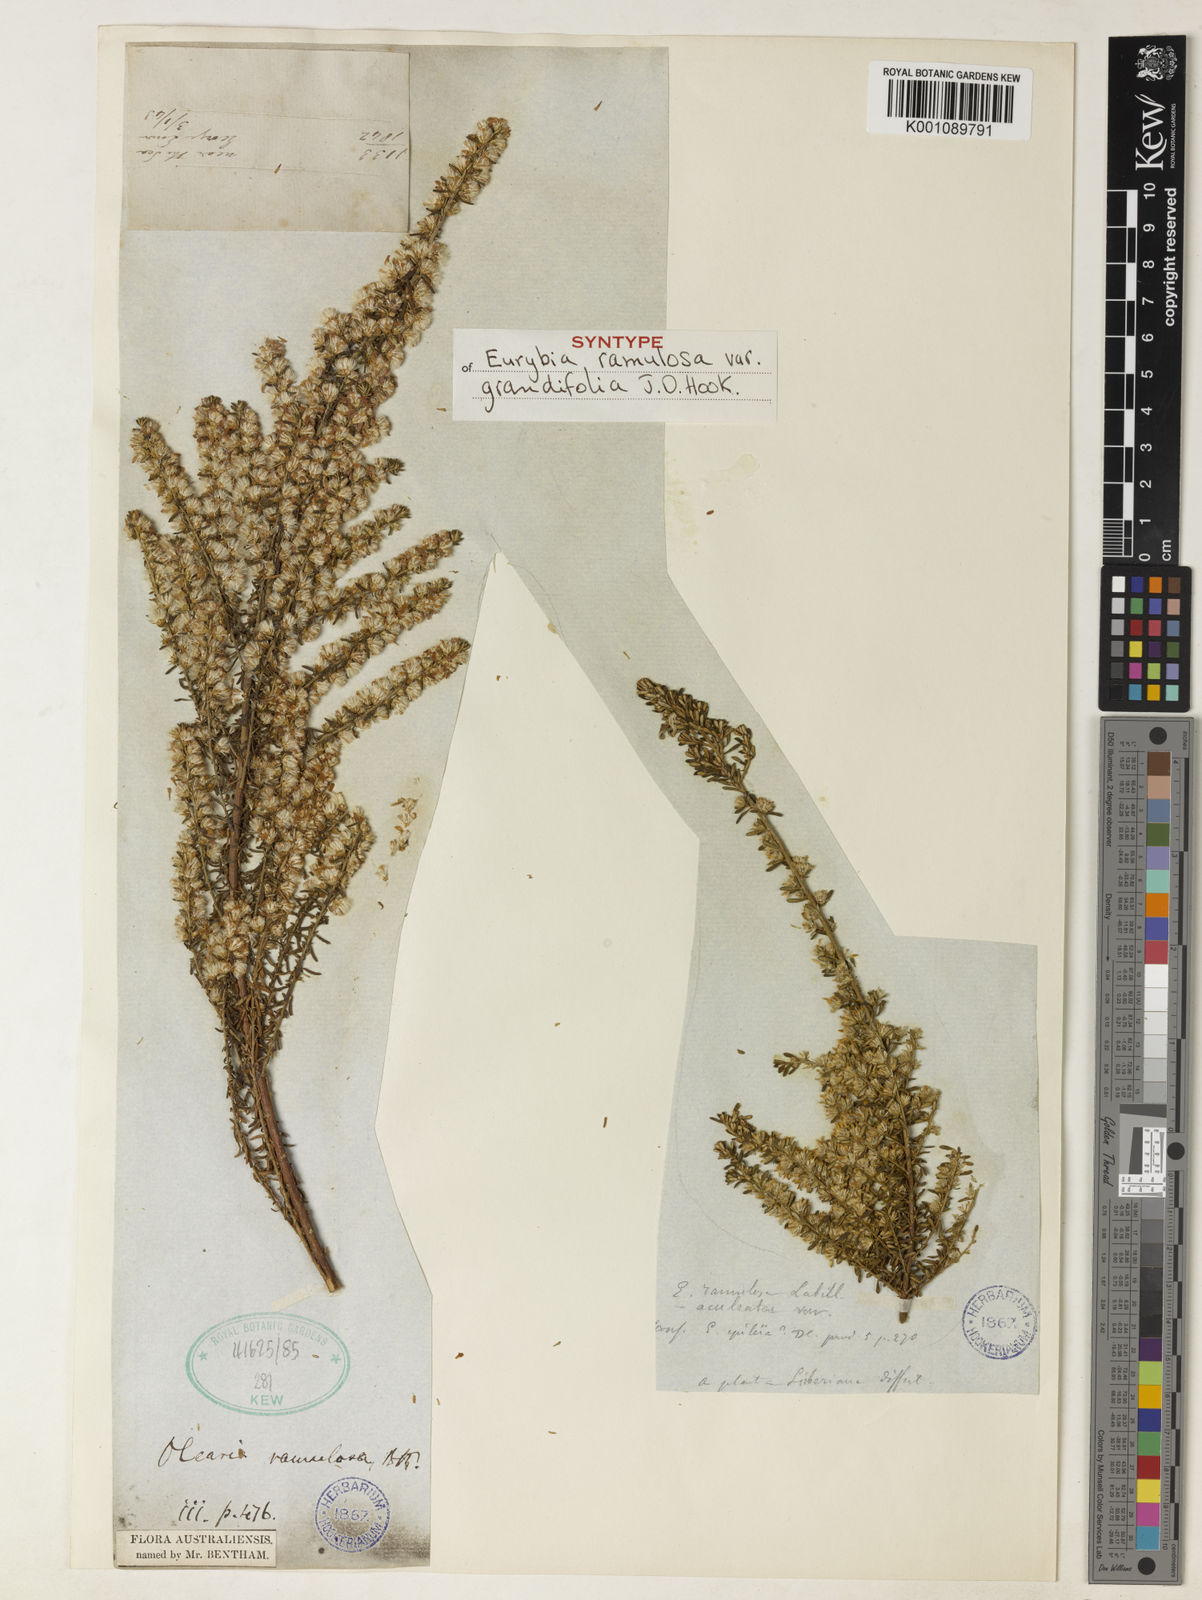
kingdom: Plantae
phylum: Tracheophyta
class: Magnoliopsida
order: Asterales
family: Asteraceae
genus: Olearia
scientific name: Olearia ramulosa
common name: Twiggy daisybush
